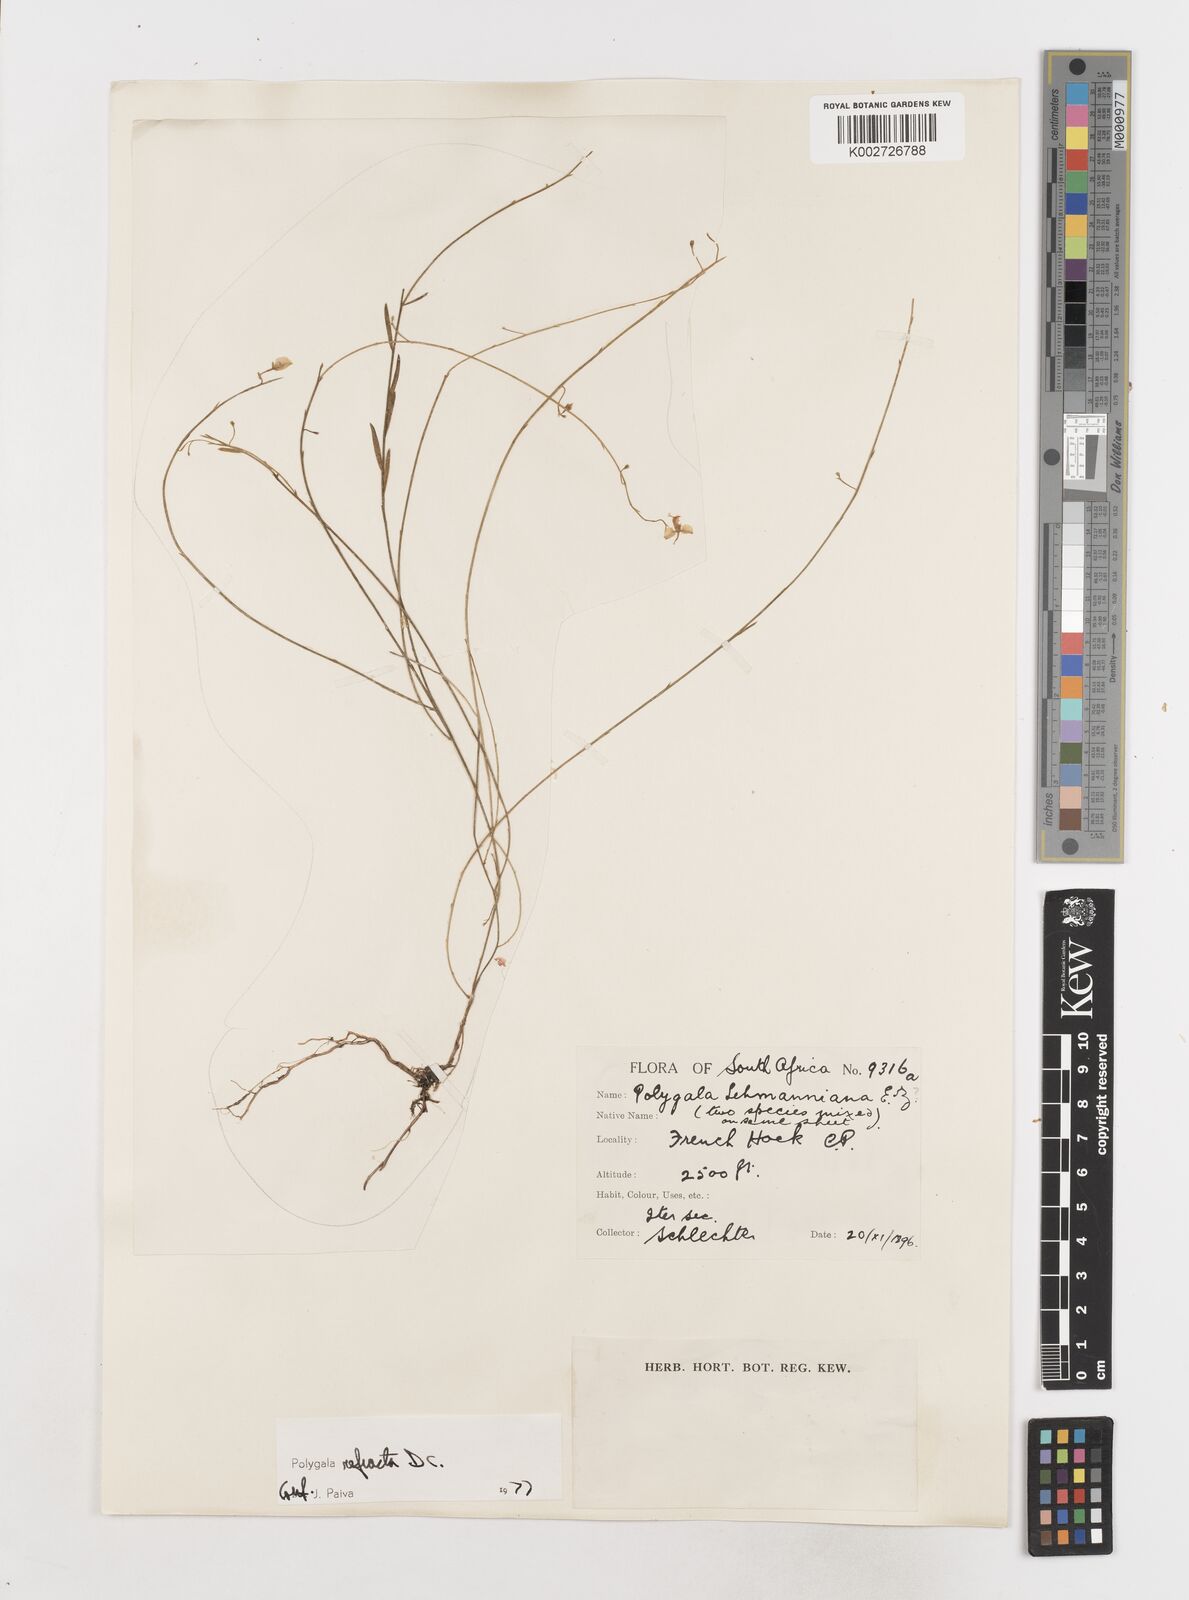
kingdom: Plantae
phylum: Tracheophyta
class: Magnoliopsida
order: Fabales
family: Polygalaceae
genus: Polygala
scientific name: Polygala refracta
